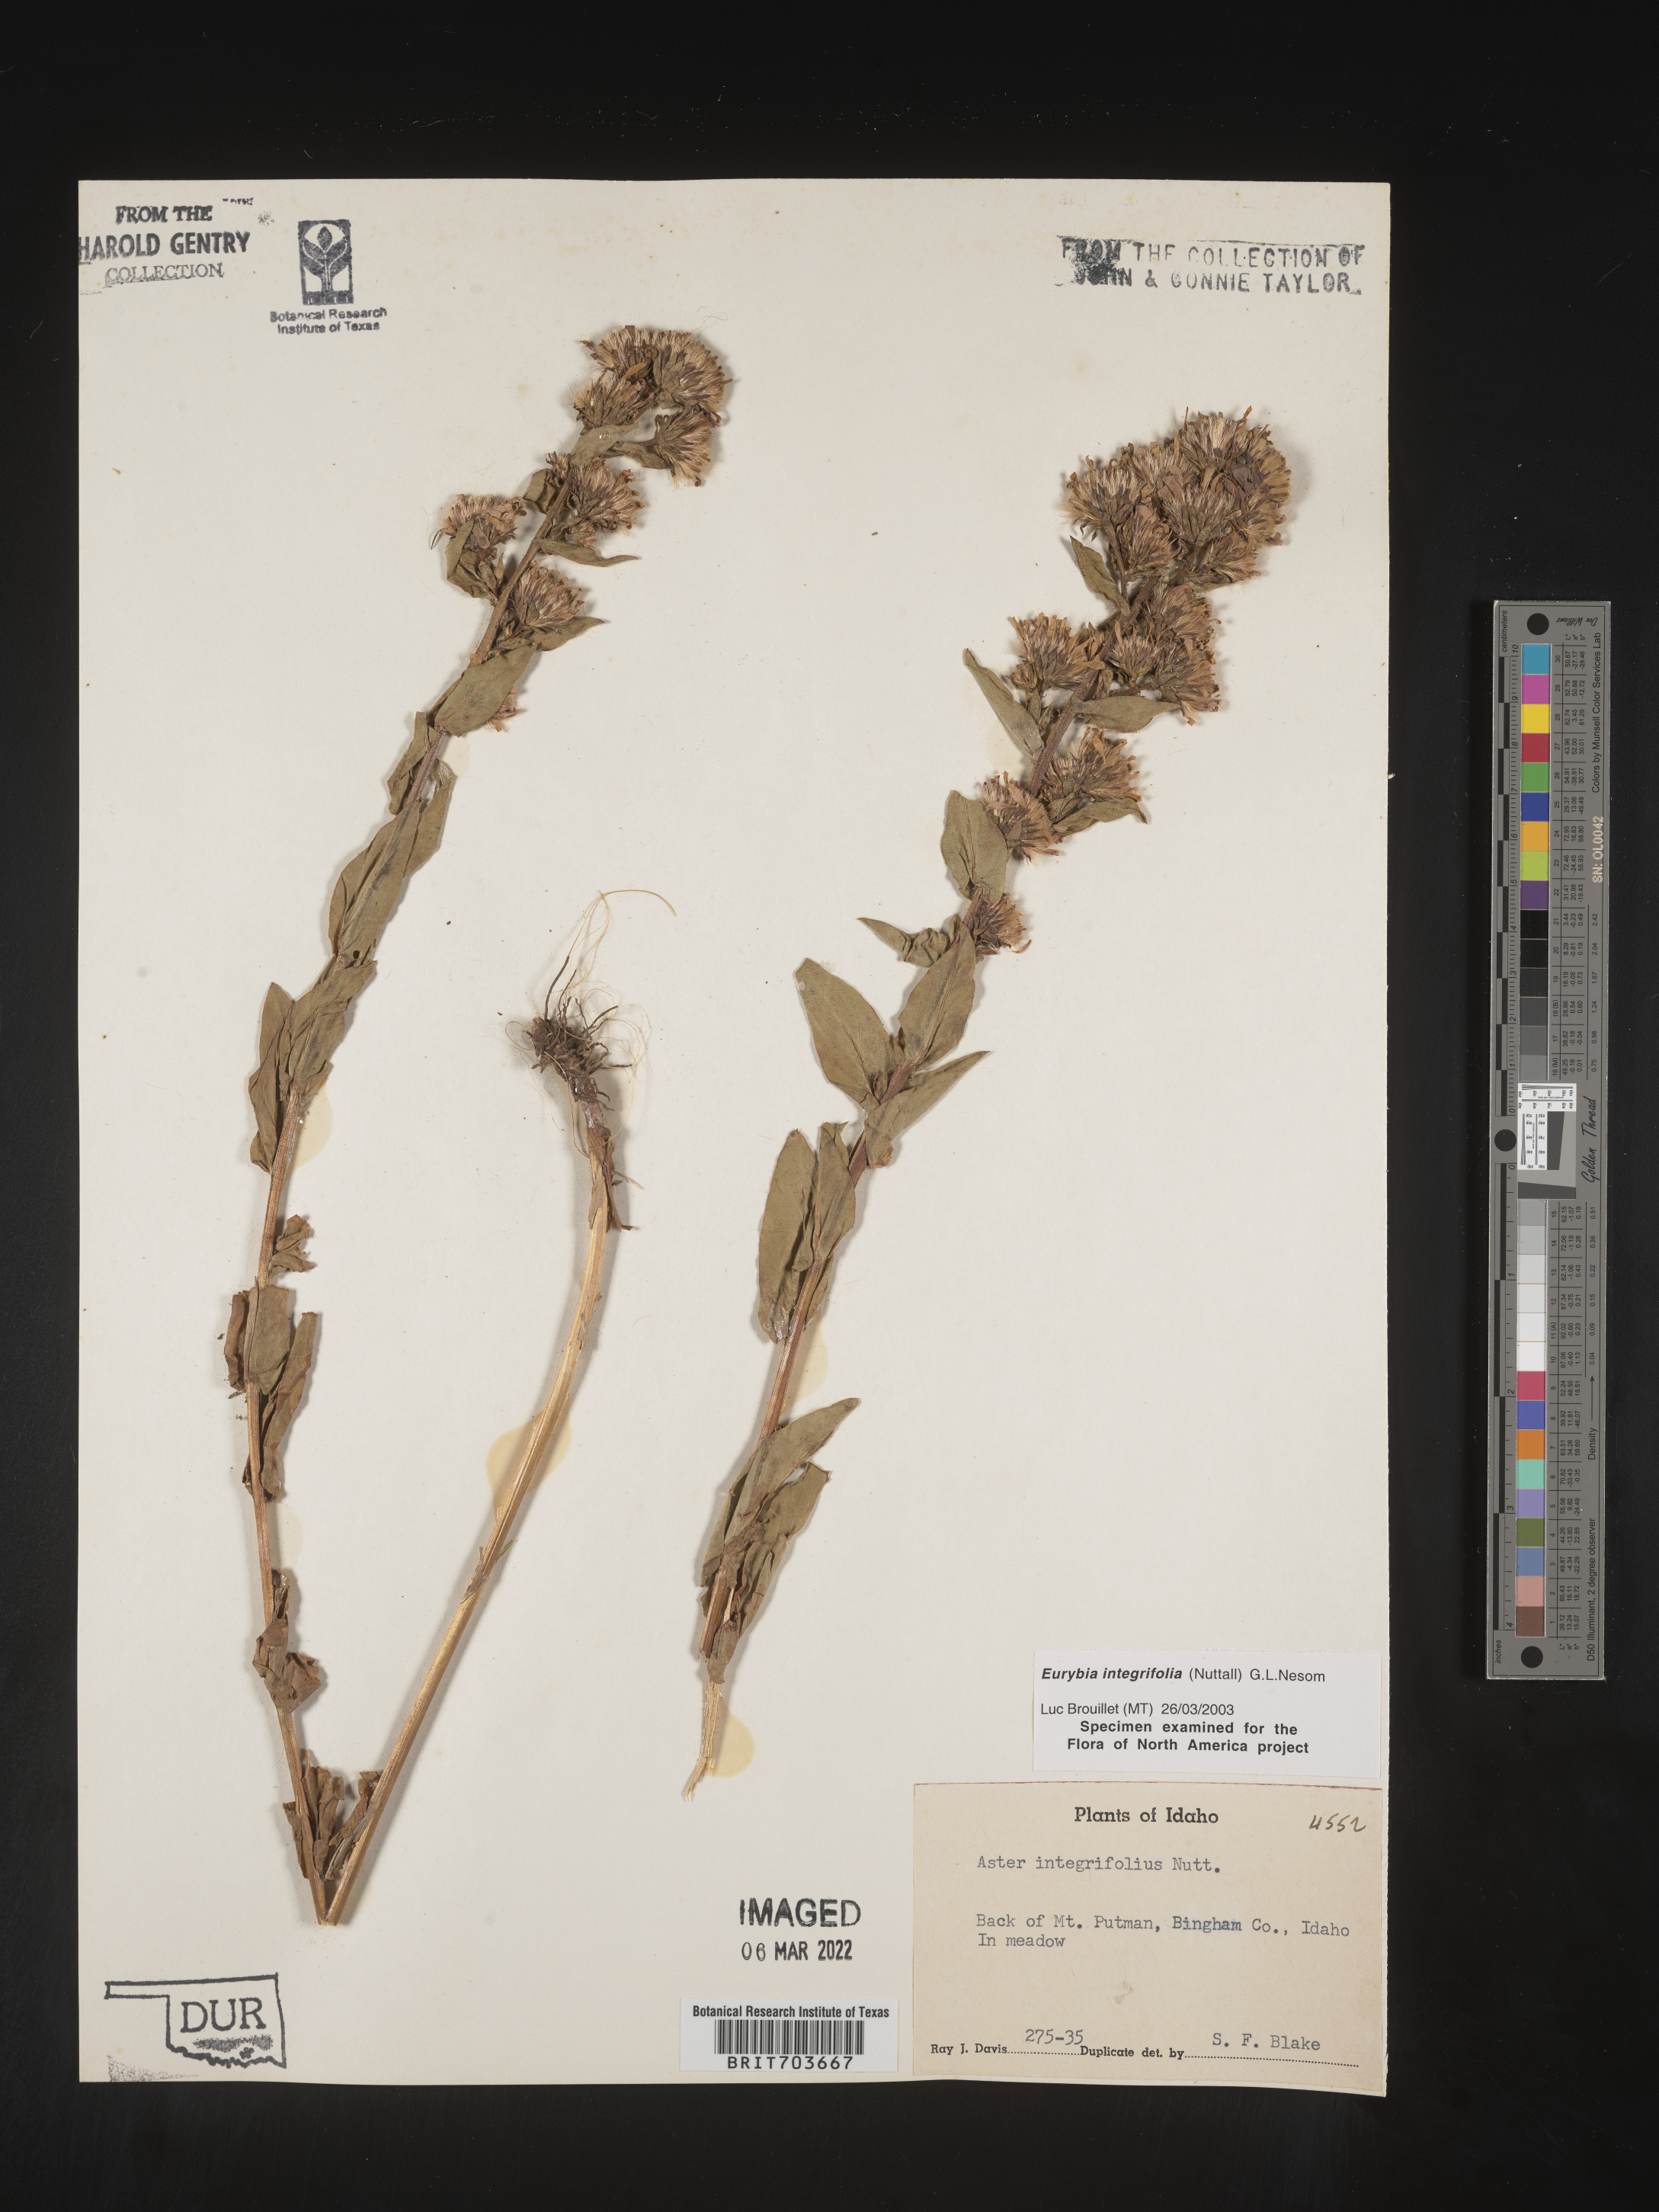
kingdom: Plantae
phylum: Tracheophyta
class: Magnoliopsida
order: Asterales
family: Asteraceae
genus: Eurybia
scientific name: Eurybia integrifolia
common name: Thick-stem aster
